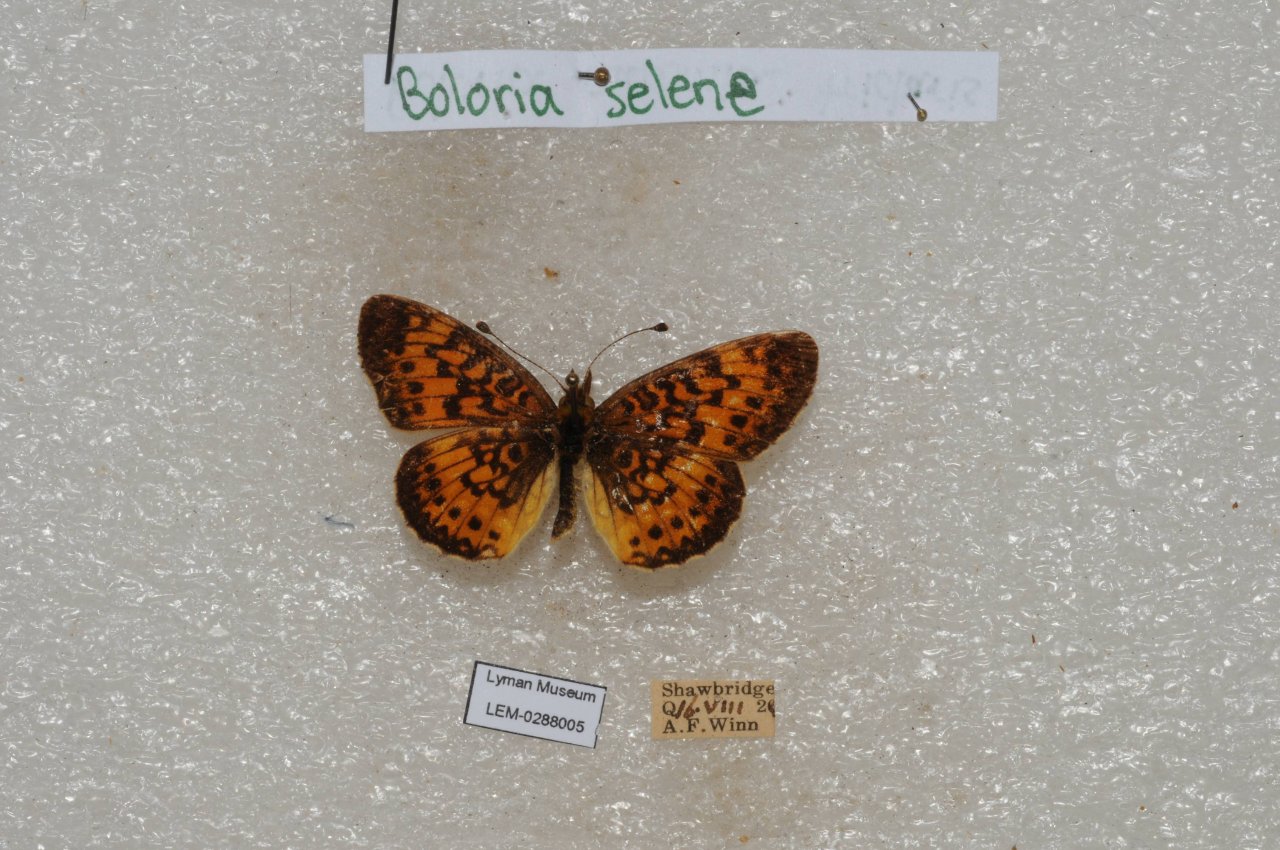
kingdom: Animalia
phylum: Arthropoda
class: Insecta
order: Lepidoptera
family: Nymphalidae
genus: Boloria
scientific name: Boloria selene
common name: Silver-bordered Fritillary
